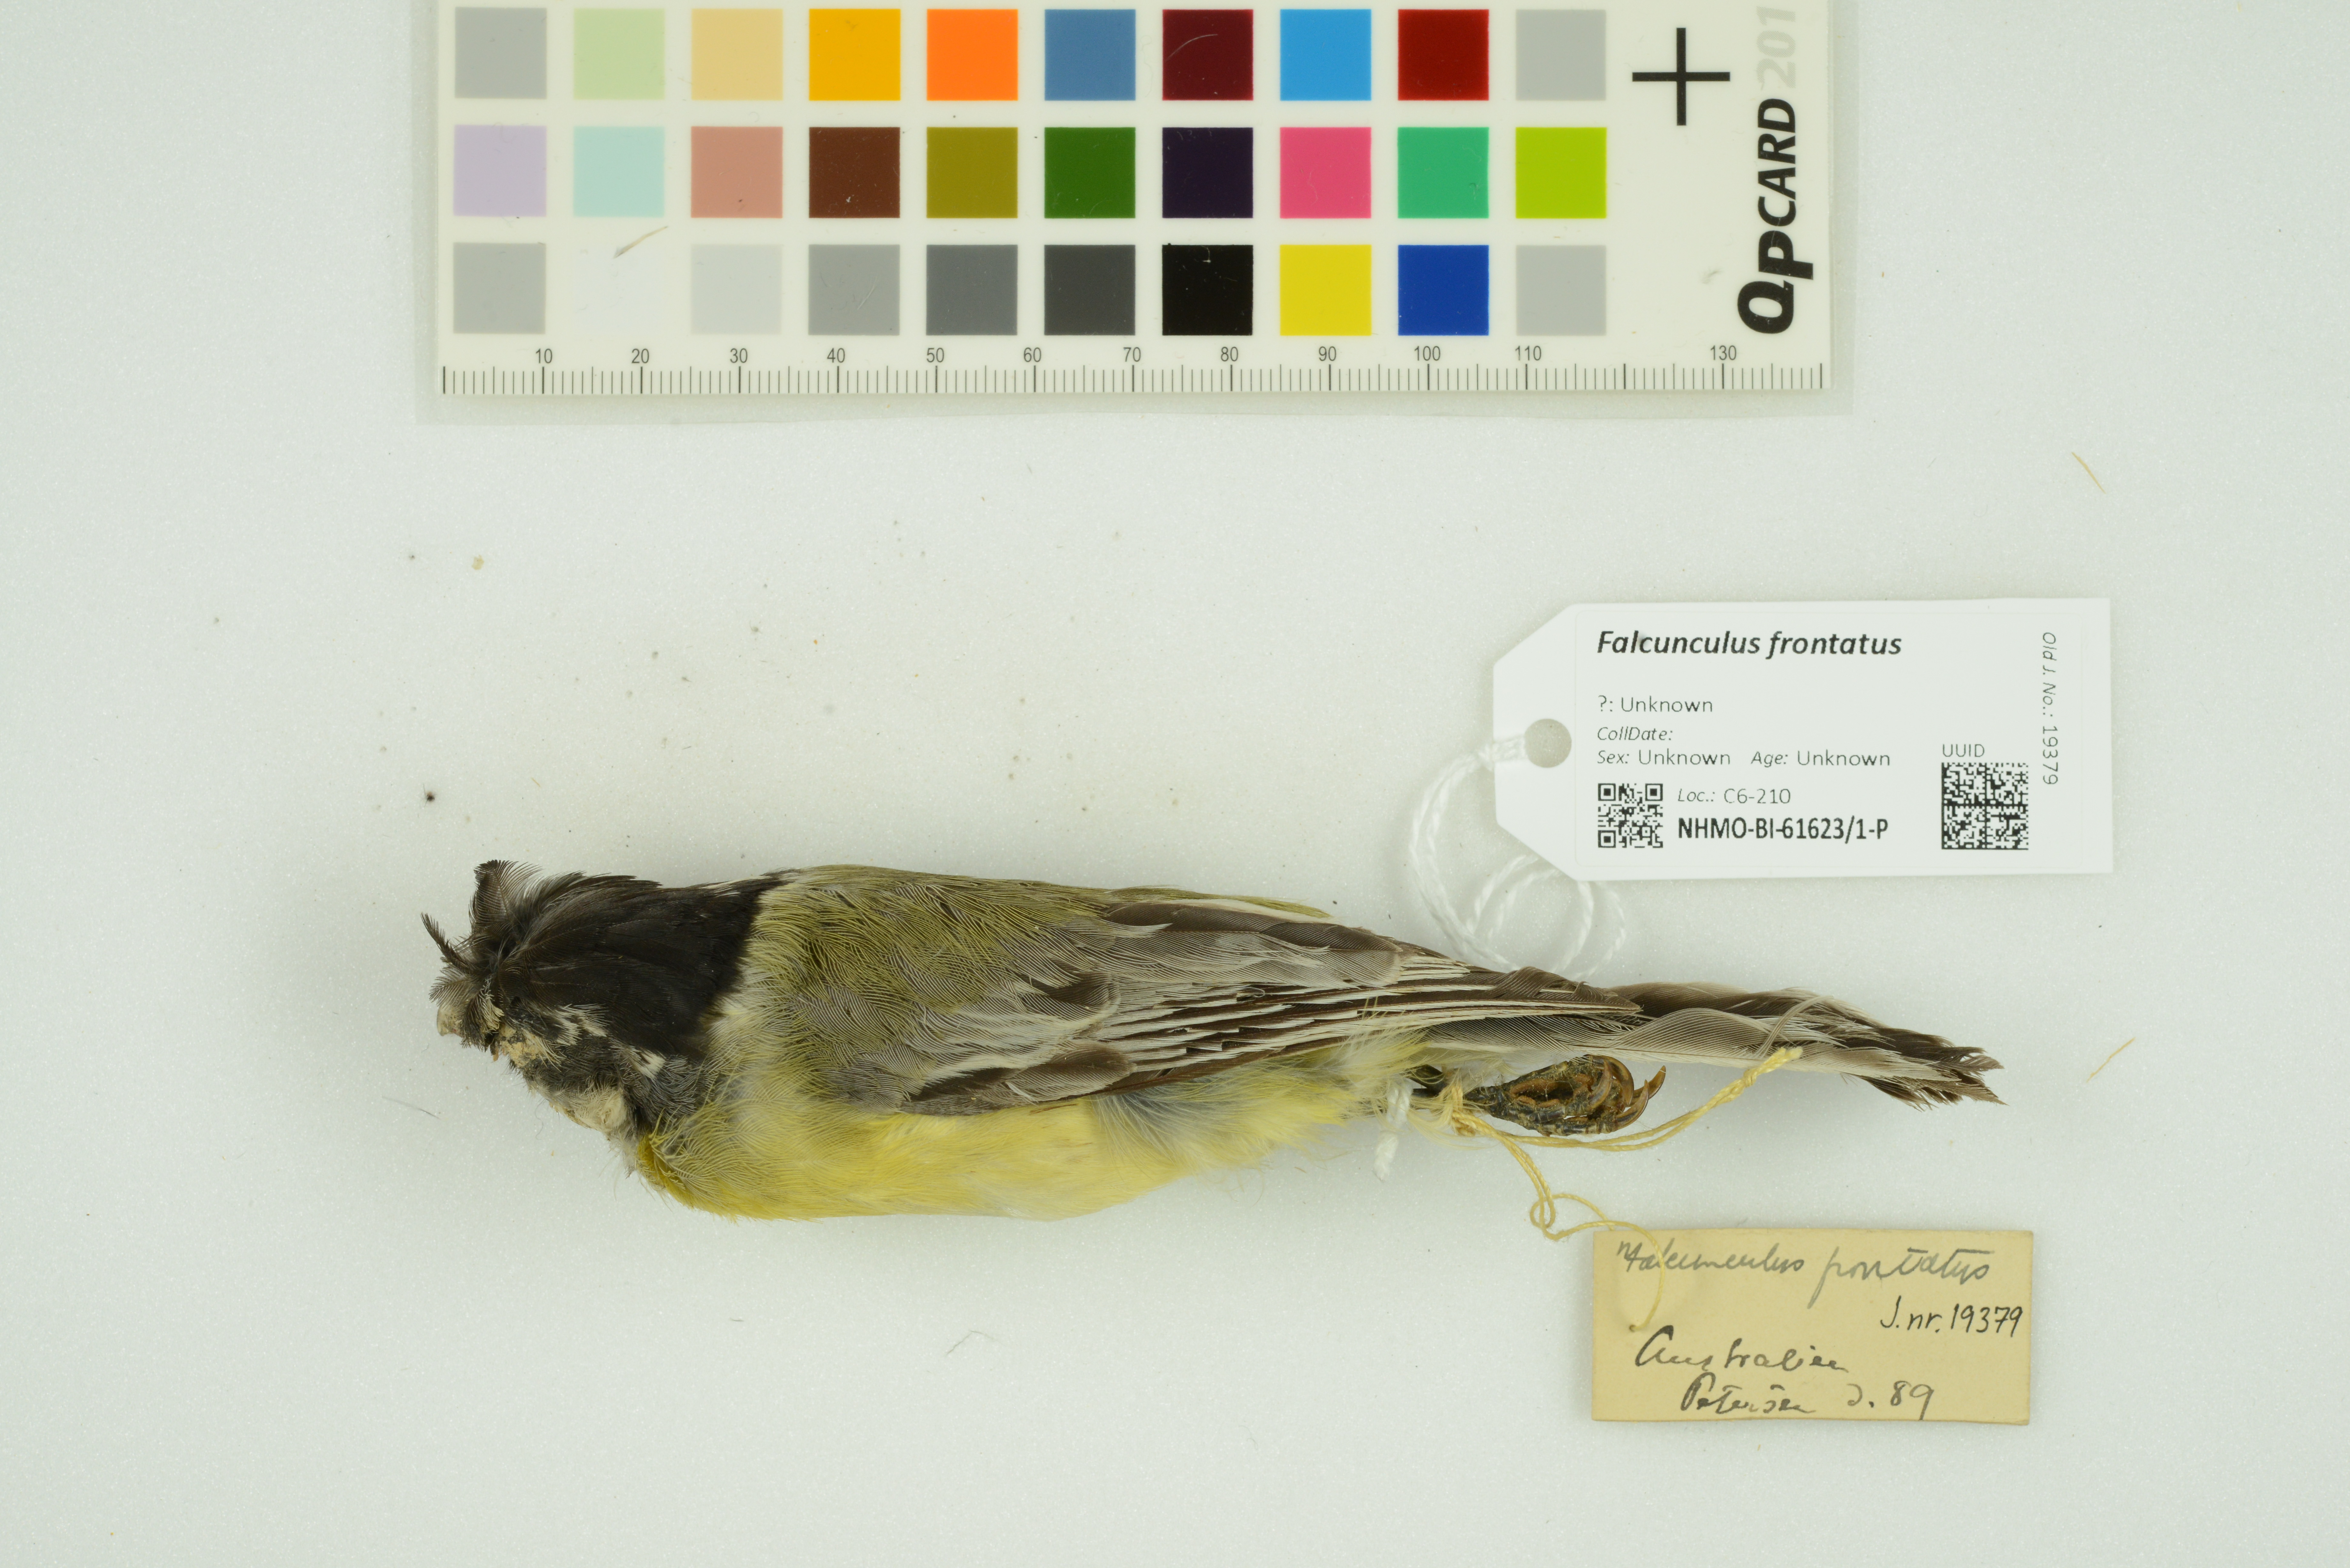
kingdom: Animalia
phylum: Chordata
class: Aves
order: Passeriformes
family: Pachycephalidae
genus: Falcunculus
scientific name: Falcunculus frontatus
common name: Crested shriketit
